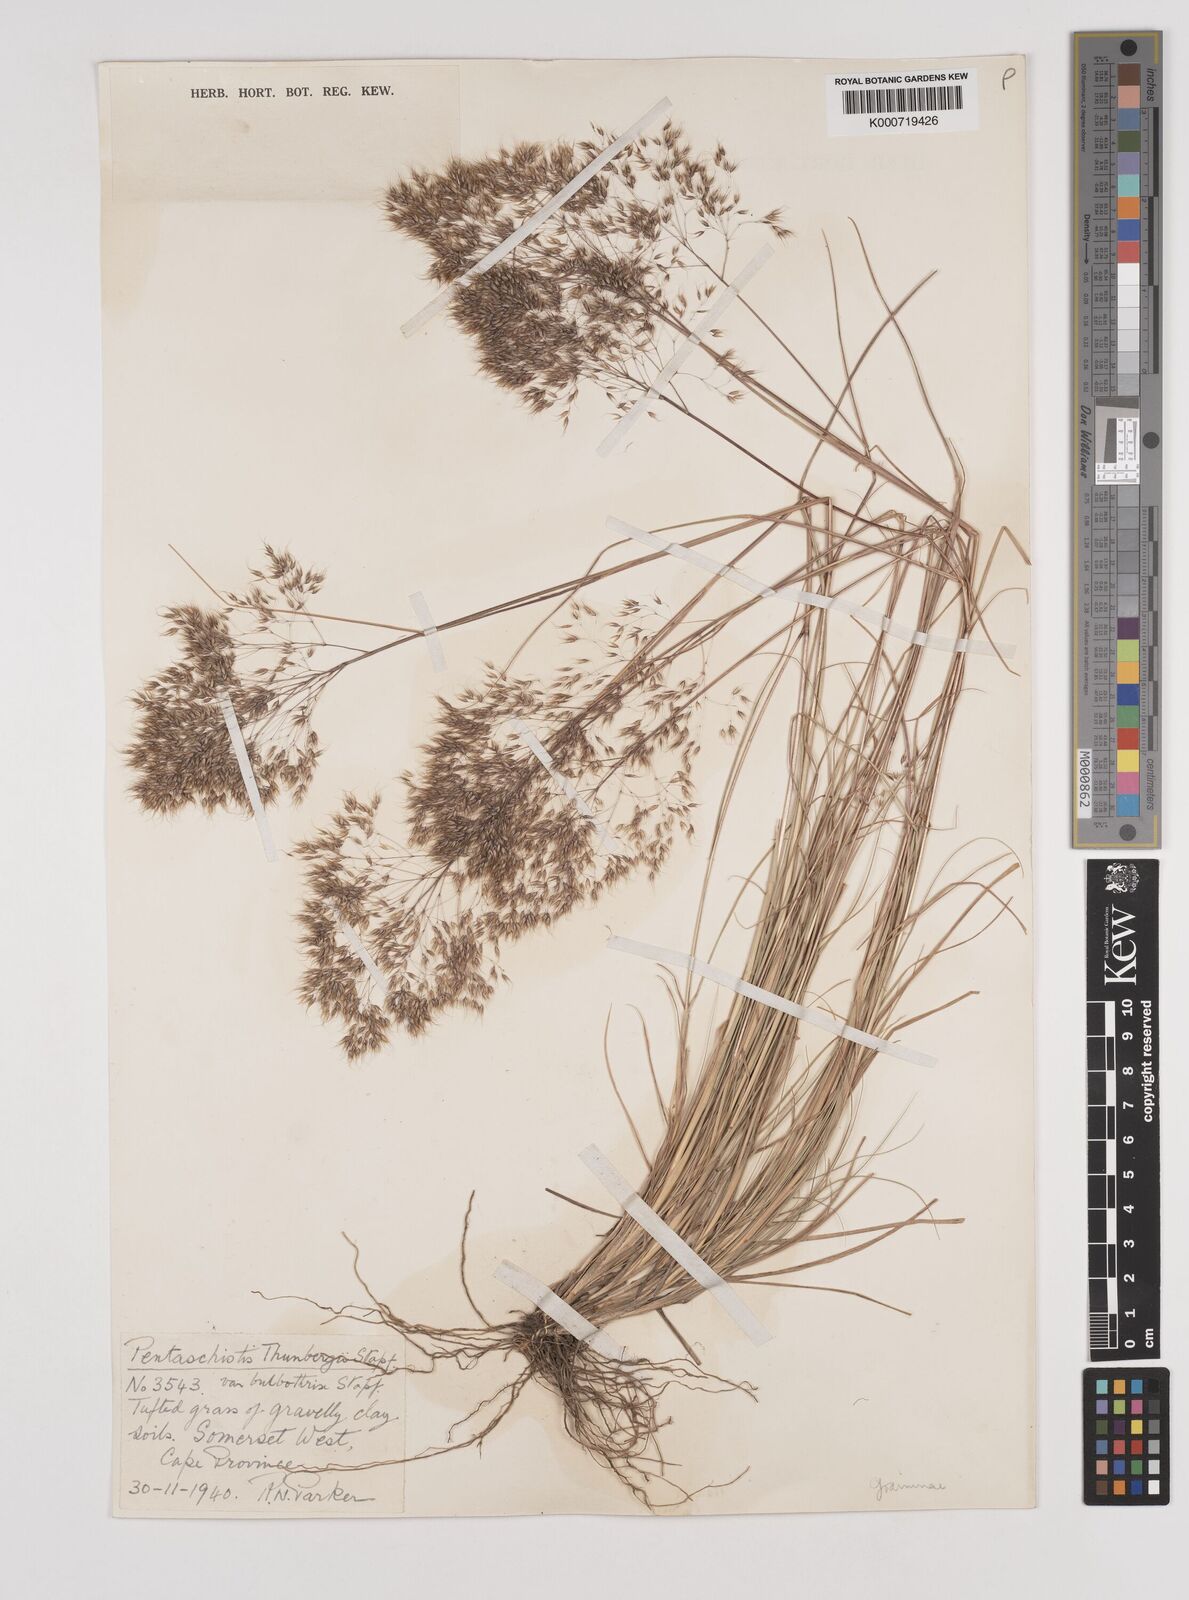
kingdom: Plantae
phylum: Tracheophyta
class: Liliopsida
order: Poales
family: Poaceae
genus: Pentameris
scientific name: Pentameris triseta
